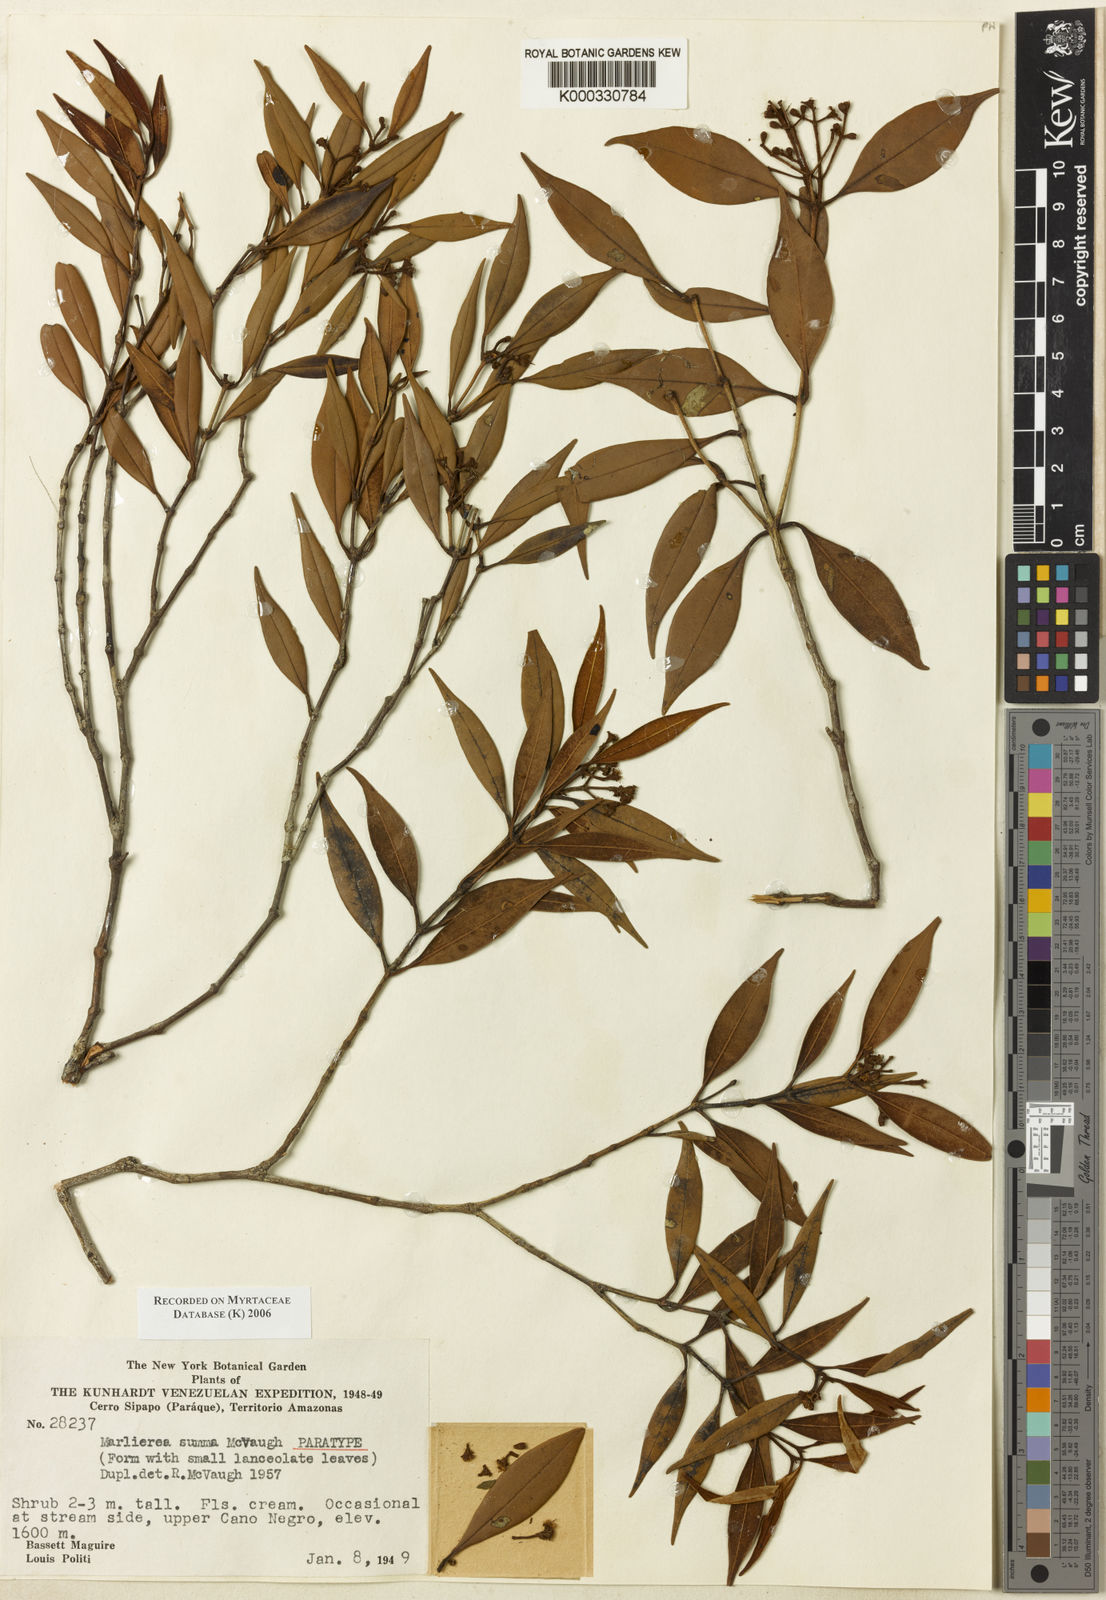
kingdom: Plantae
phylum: Tracheophyta
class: Magnoliopsida
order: Myrtales
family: Myrtaceae
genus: Myrcia
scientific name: Myrcia summa
